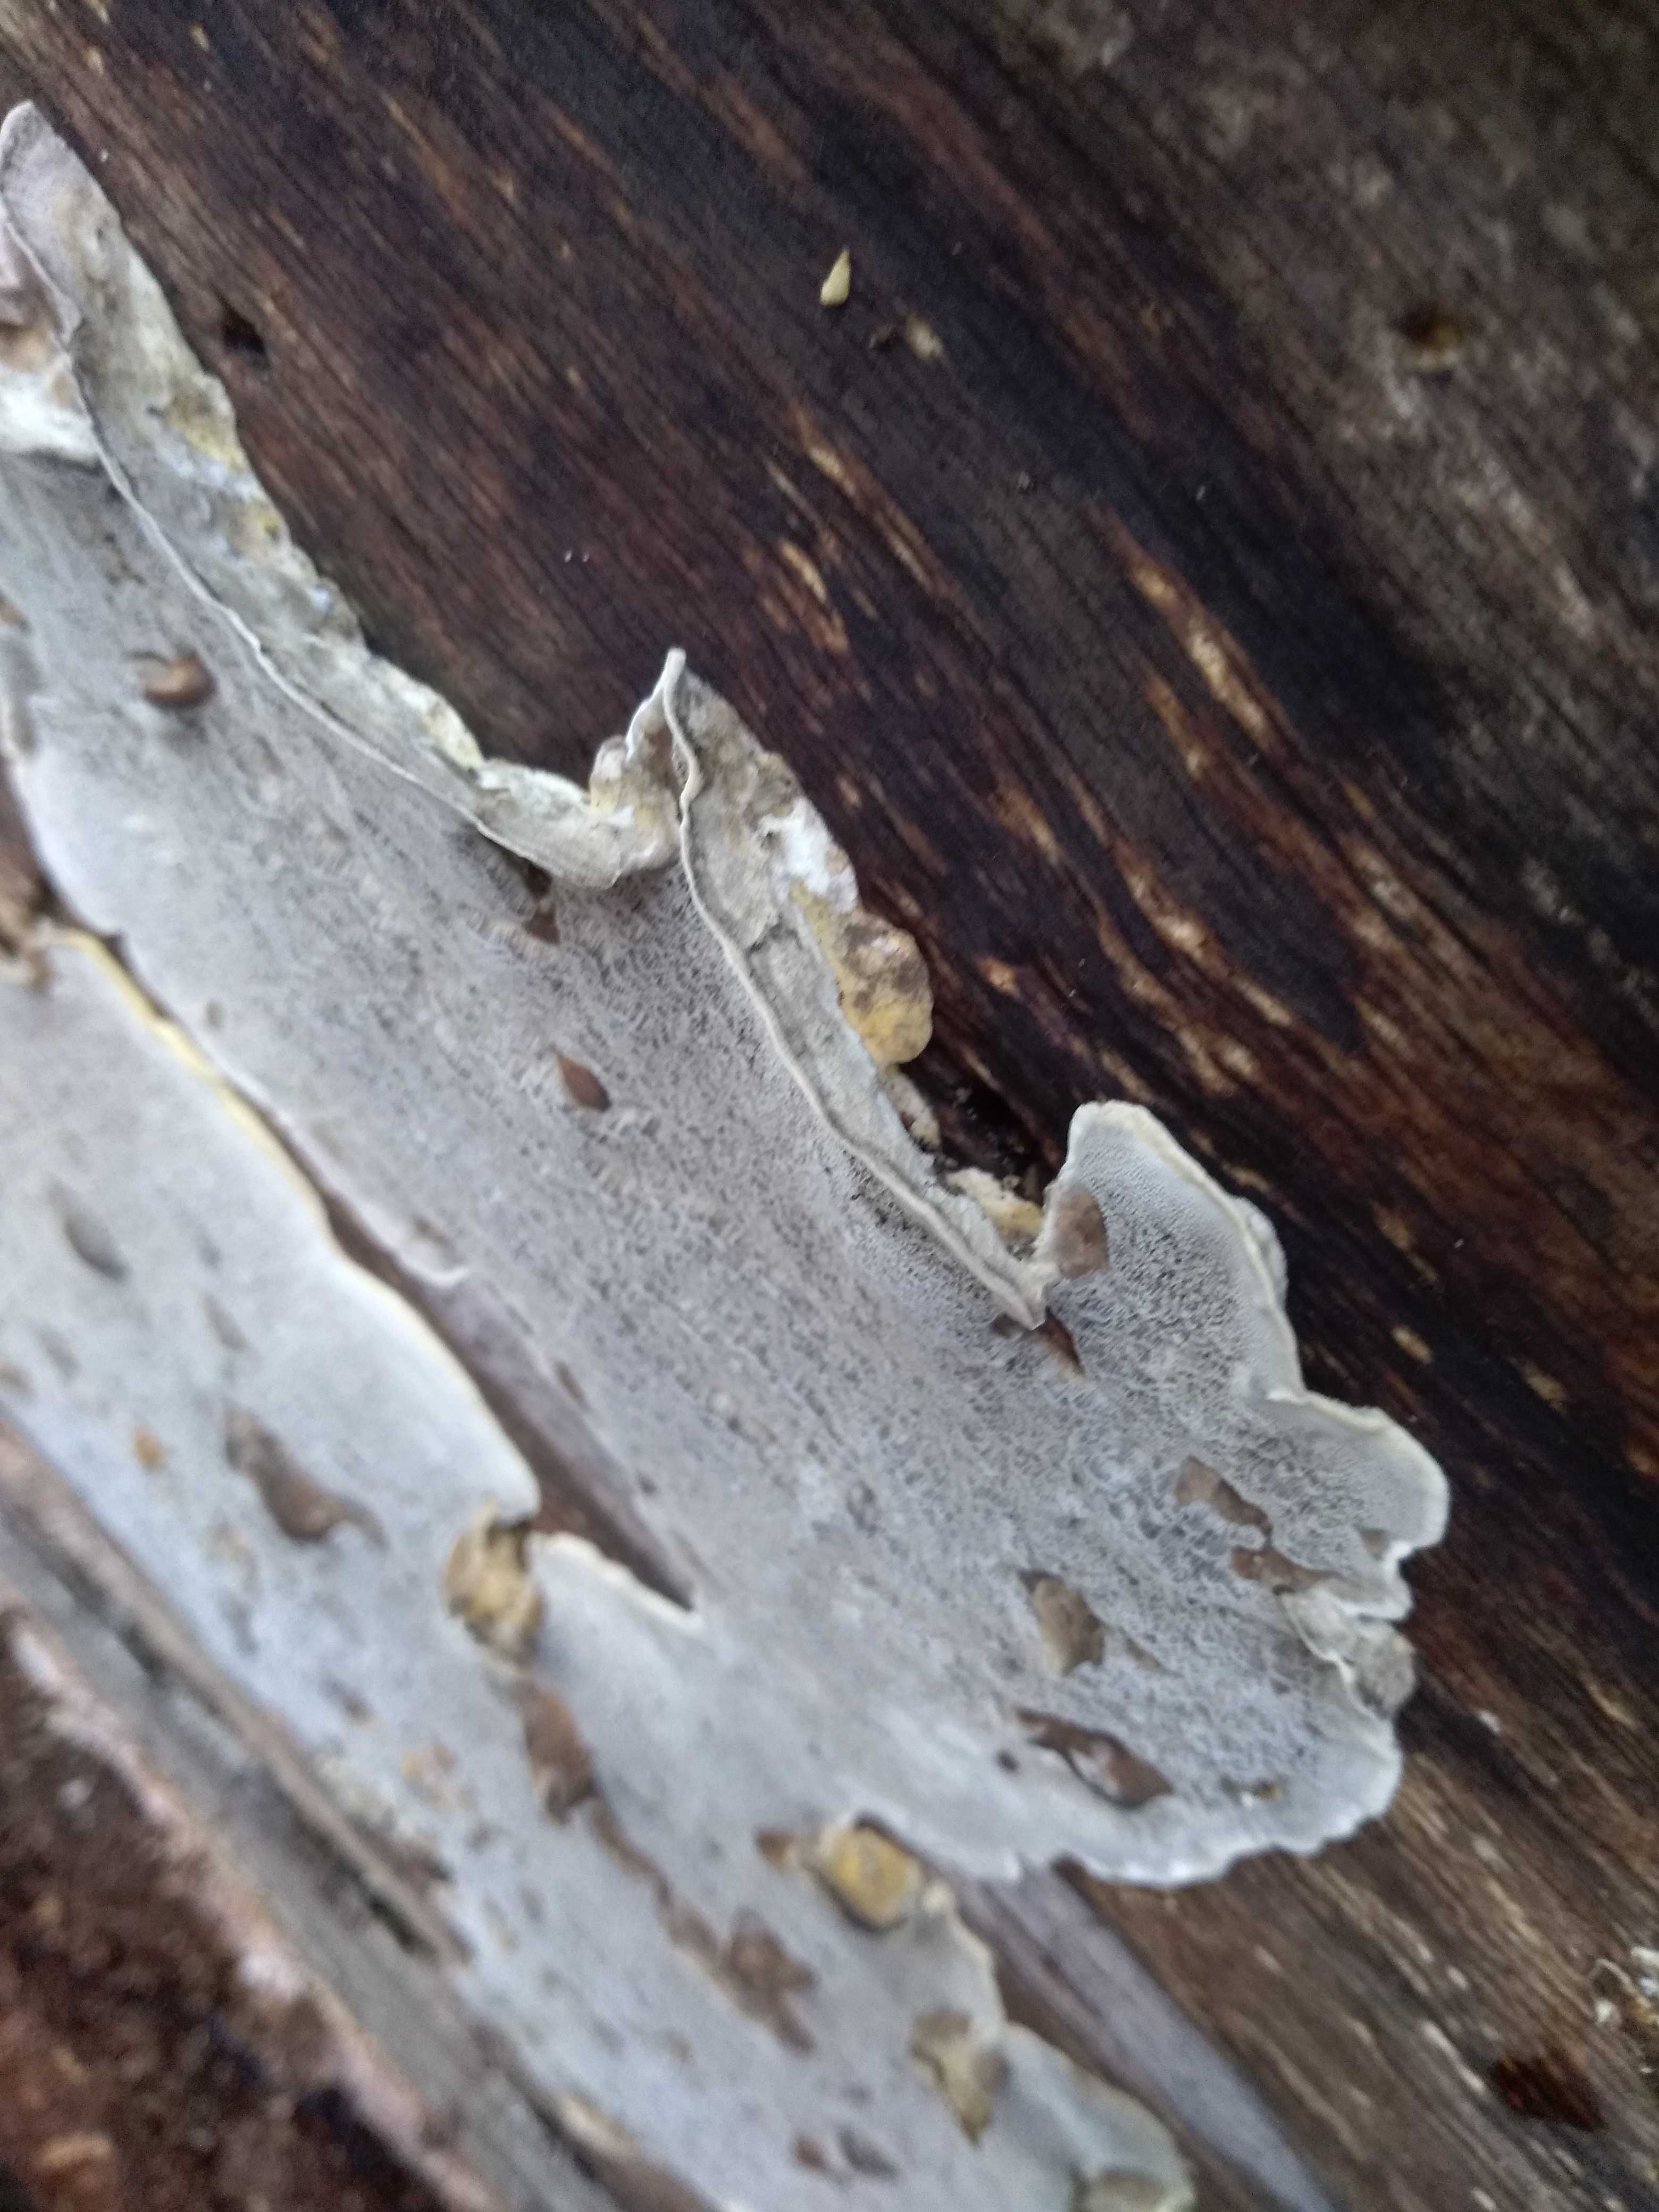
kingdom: Fungi
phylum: Basidiomycota
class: Agaricomycetes
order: Polyporales
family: Phanerochaetaceae
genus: Bjerkandera
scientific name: Bjerkandera adusta
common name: sveden sodporesvamp
